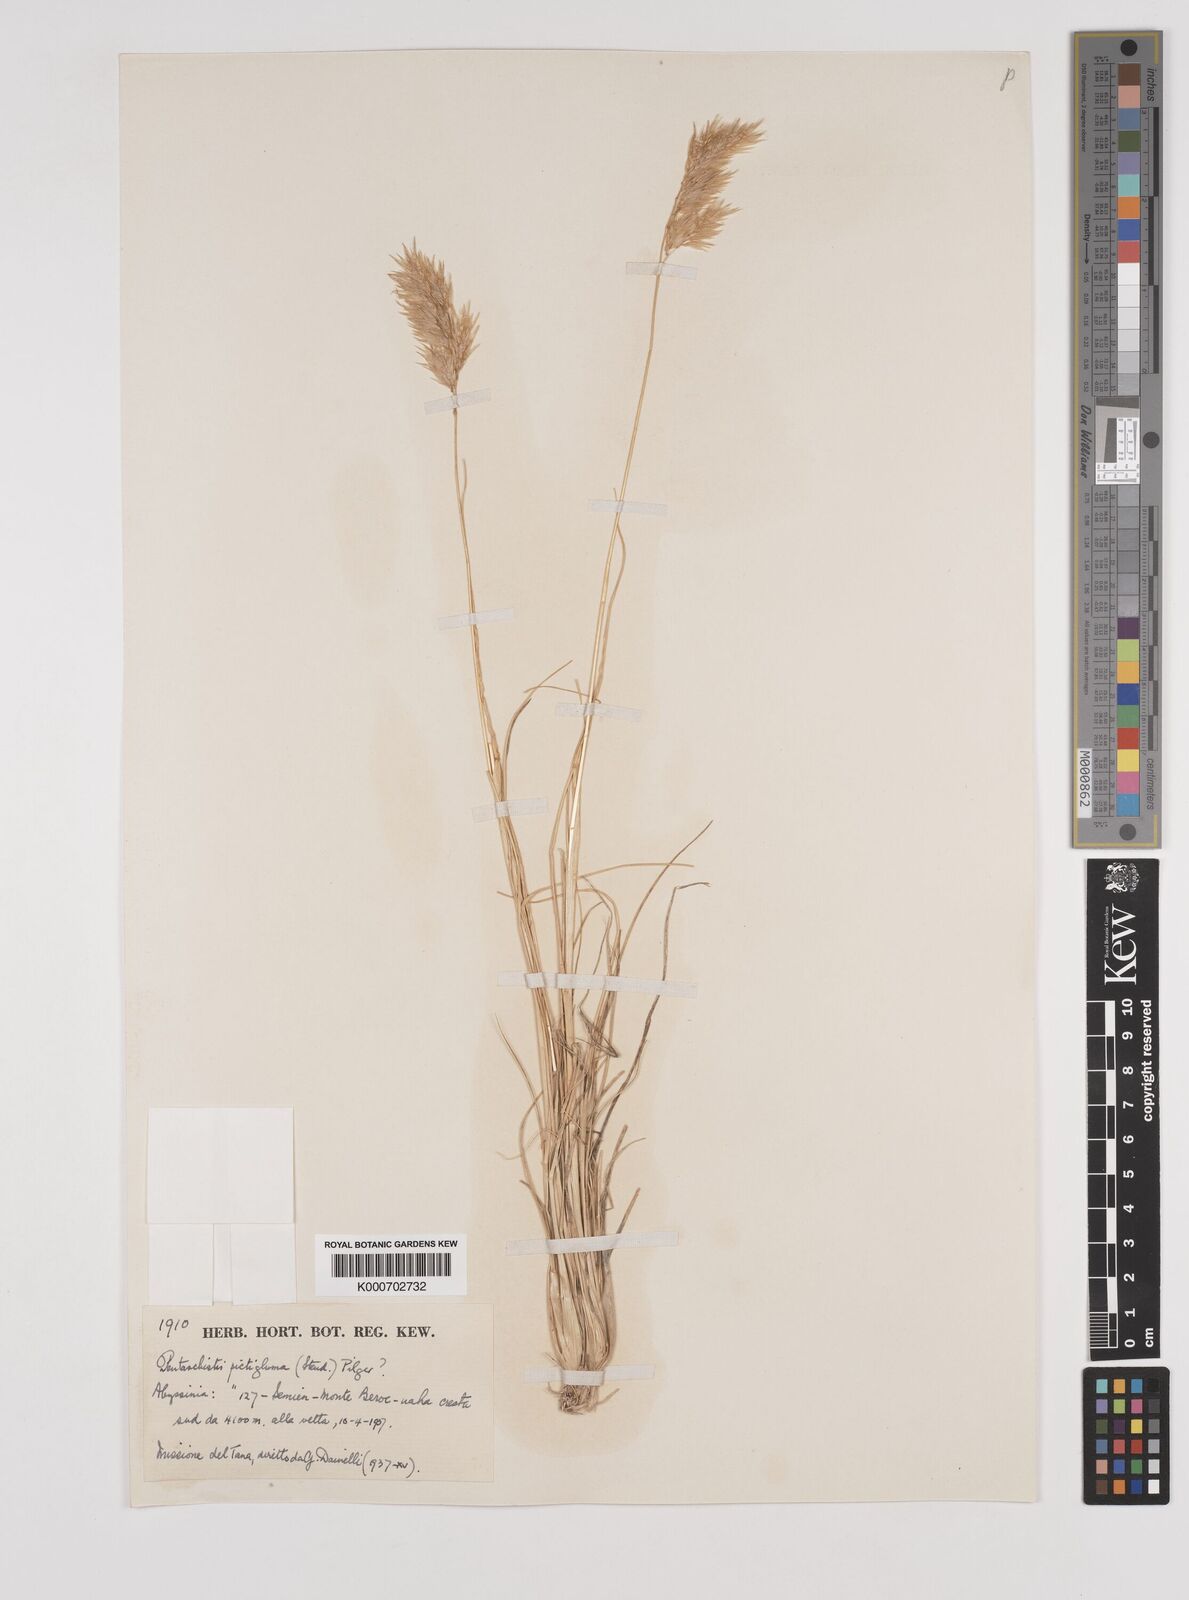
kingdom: Plantae
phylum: Tracheophyta
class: Liliopsida
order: Poales
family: Poaceae
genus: Pentameris
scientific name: Pentameris pictigluma
